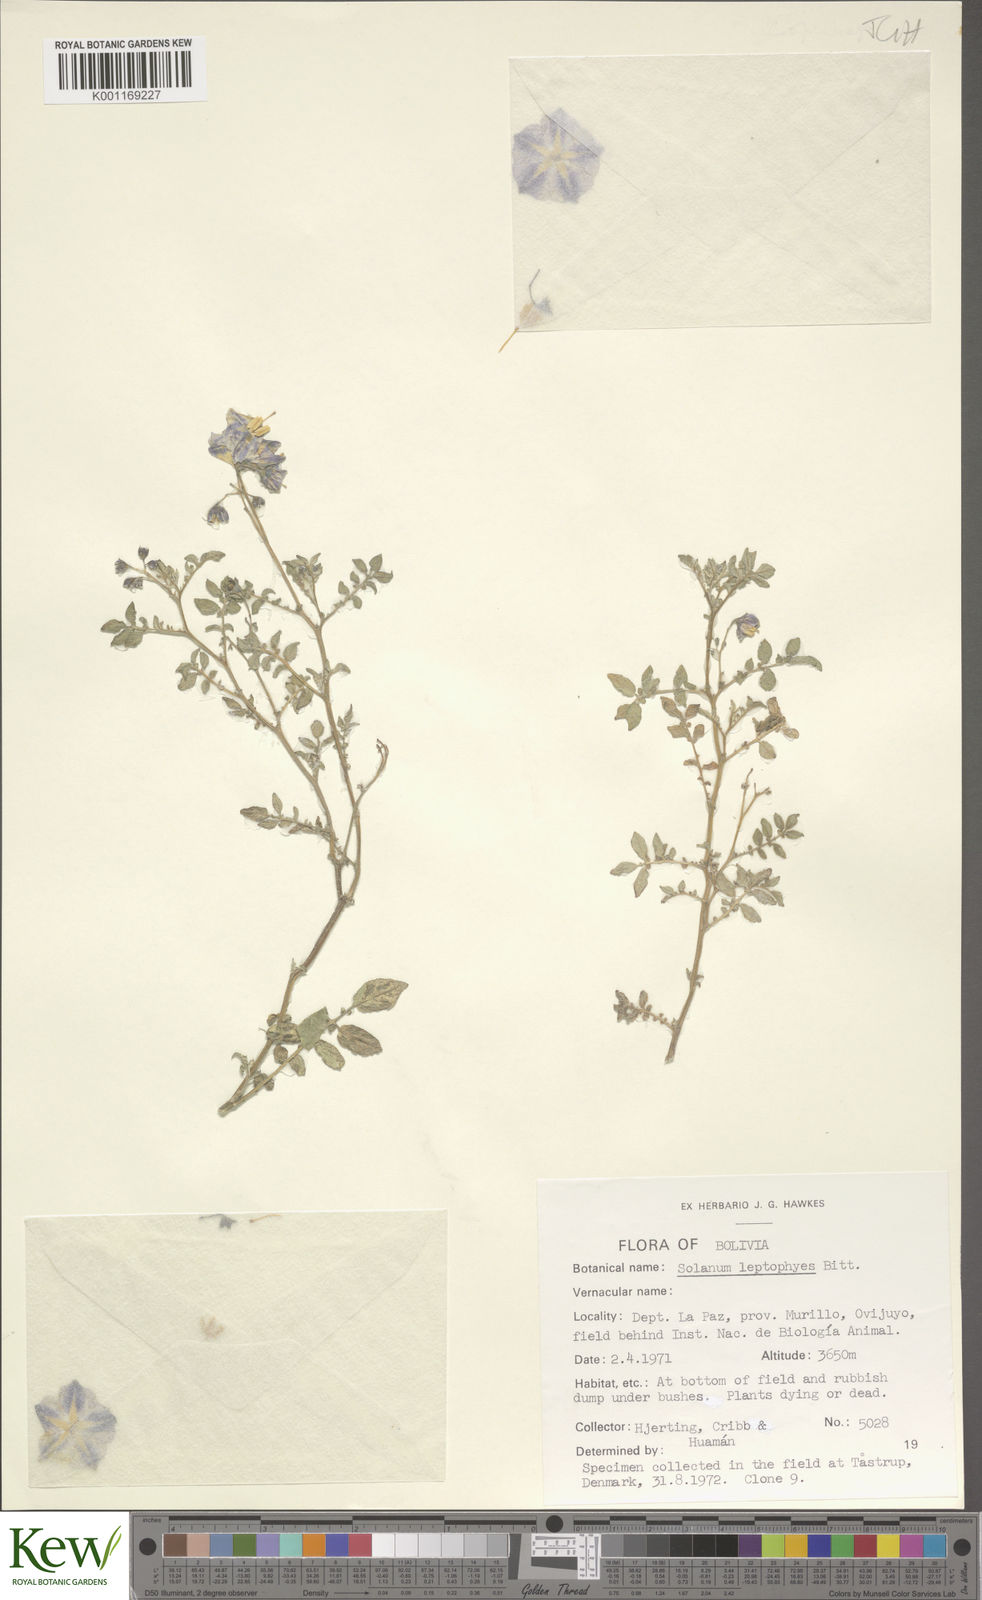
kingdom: Plantae
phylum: Tracheophyta
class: Magnoliopsida
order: Solanales
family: Solanaceae
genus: Solanum
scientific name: Solanum brevicaule
